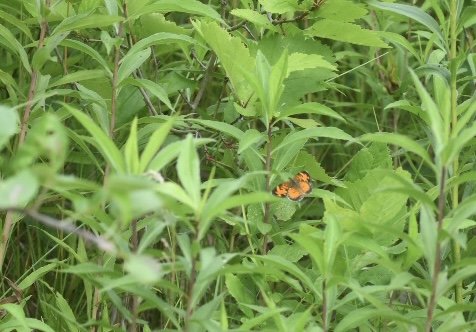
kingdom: Animalia
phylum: Arthropoda
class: Insecta
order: Lepidoptera
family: Nymphalidae
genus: Phyciodes
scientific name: Phyciodes tharos
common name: Northern Crescent
